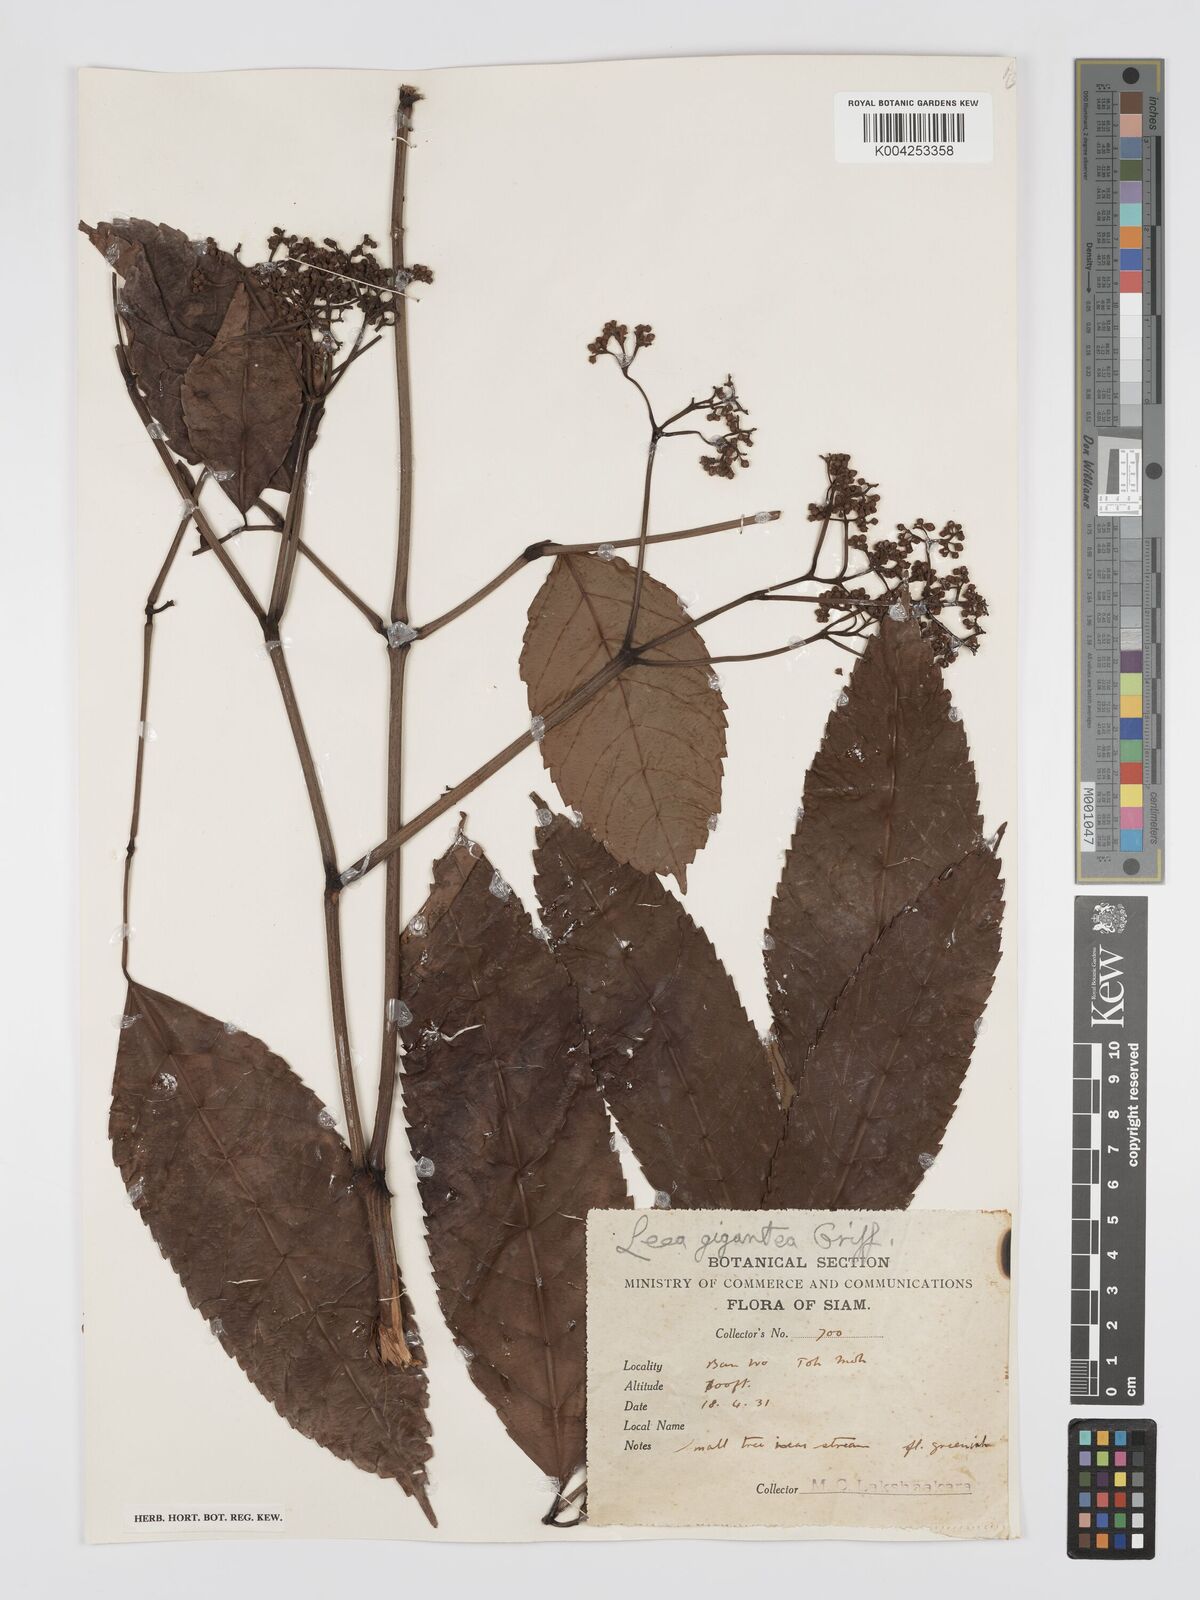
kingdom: Plantae
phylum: Tracheophyta
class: Magnoliopsida
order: Vitales
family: Vitaceae
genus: Leea
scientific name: Leea indica
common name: Bandicoot-berry
